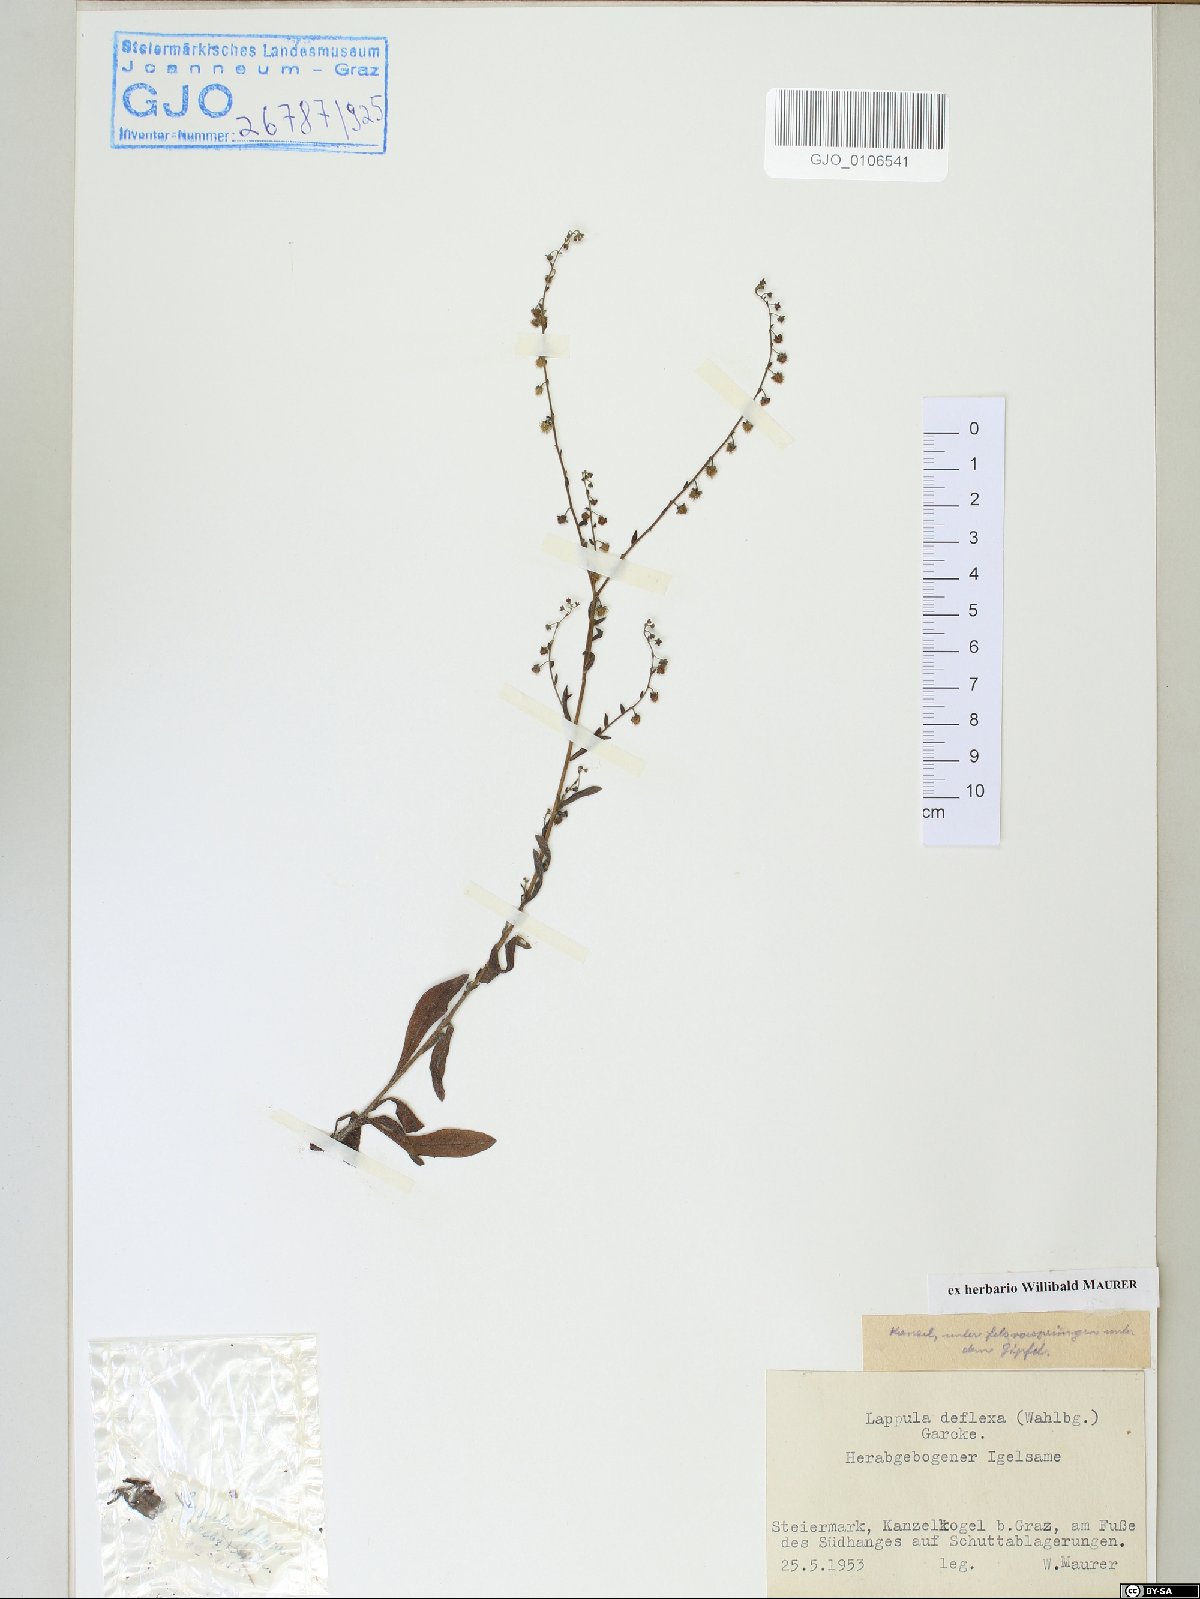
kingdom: Plantae
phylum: Tracheophyta
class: Magnoliopsida
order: Boraginales
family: Boraginaceae
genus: Hackelia
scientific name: Hackelia deflexa
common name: Nodding stickseed
